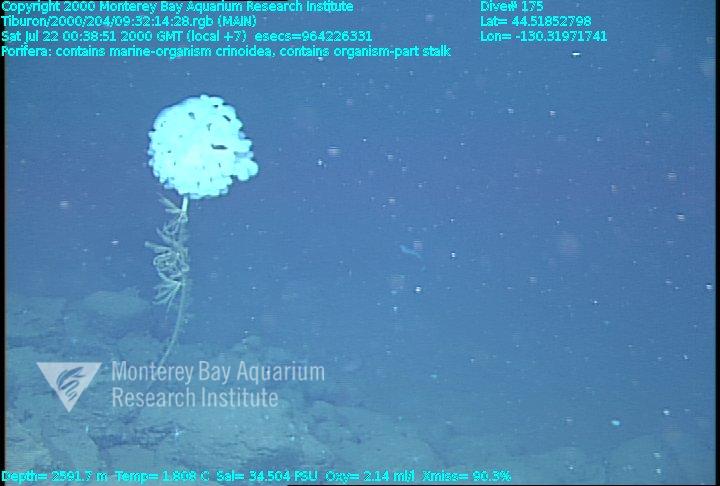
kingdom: Animalia
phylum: Porifera
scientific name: Porifera
